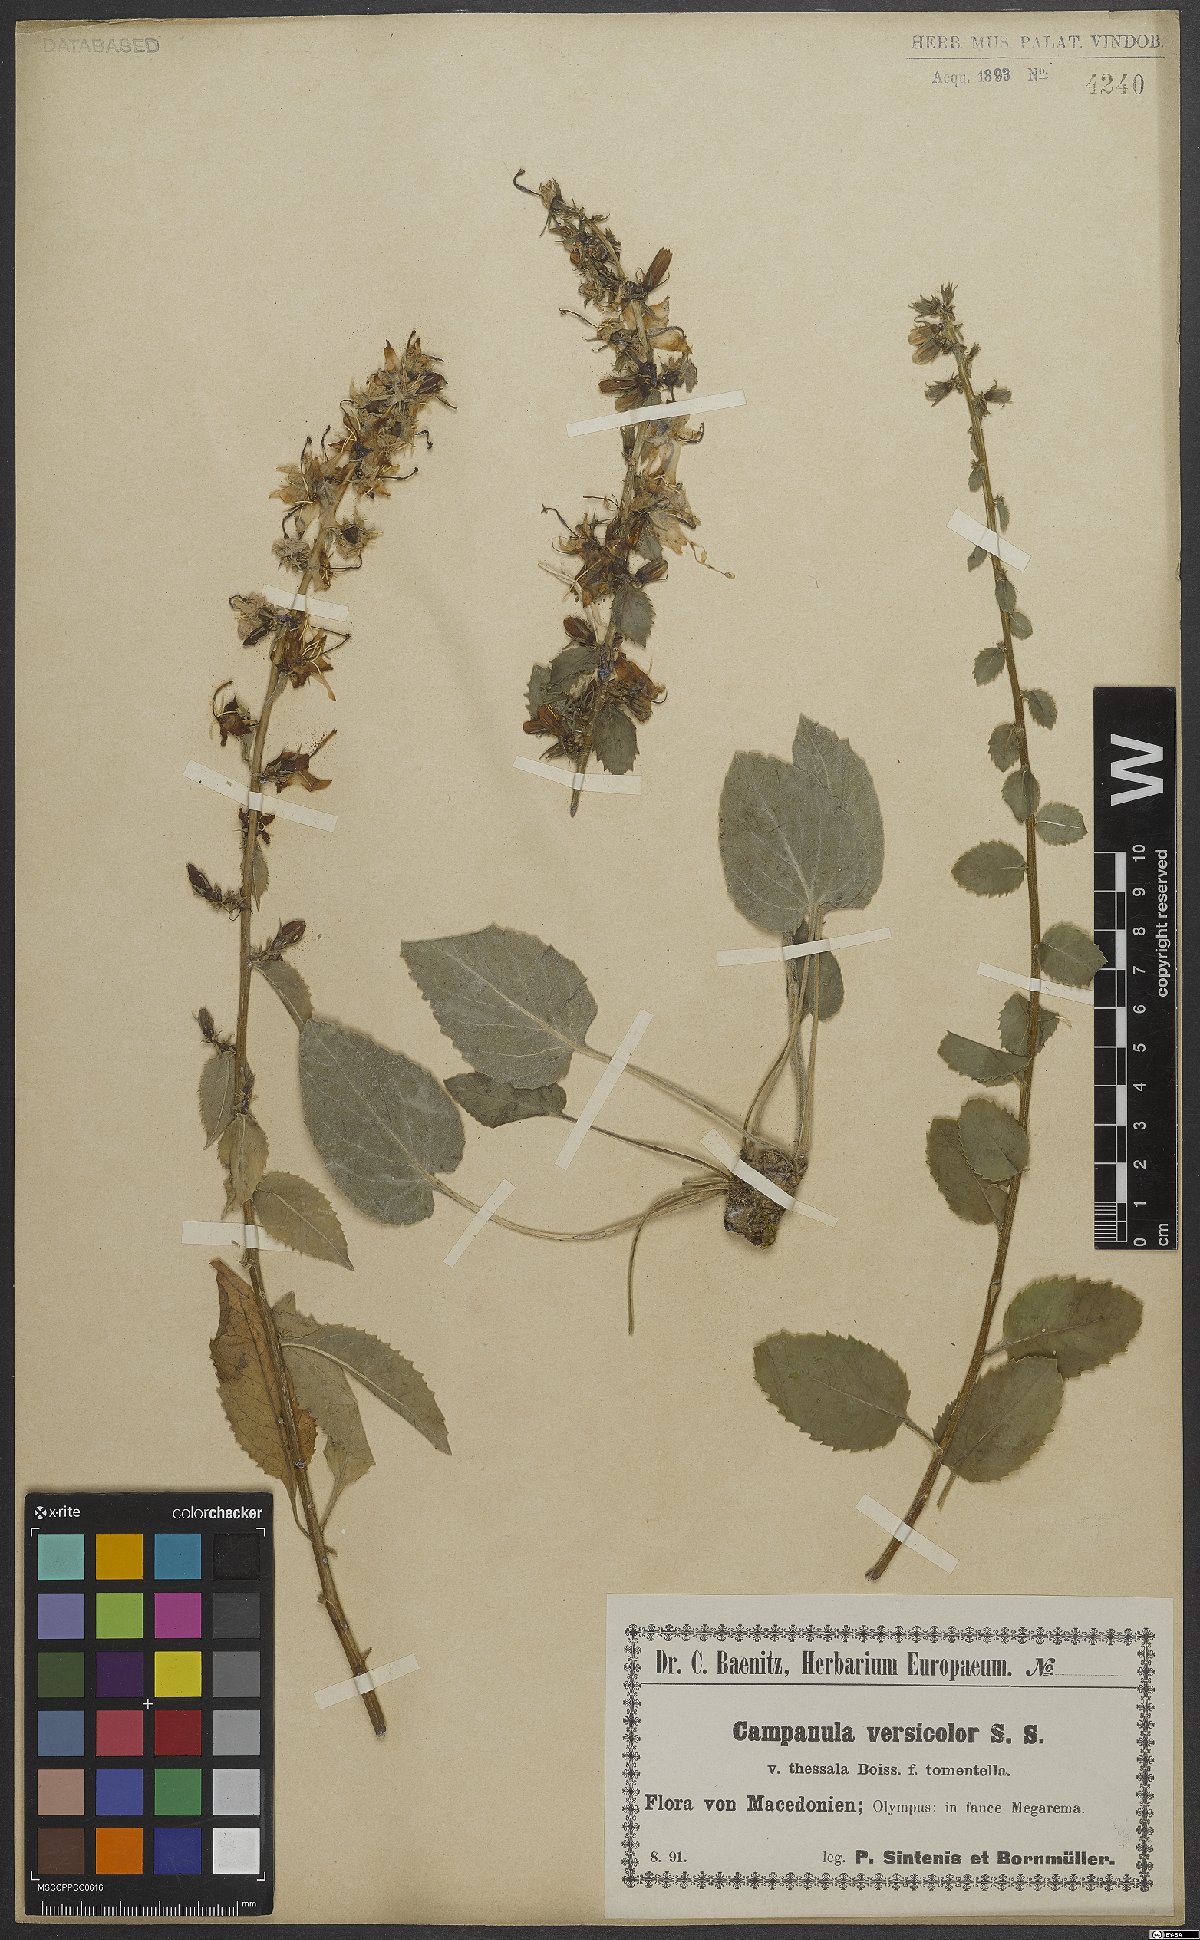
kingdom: Plantae
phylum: Tracheophyta
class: Magnoliopsida
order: Asterales
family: Campanulaceae
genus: Campanula
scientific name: Campanula versicolor
